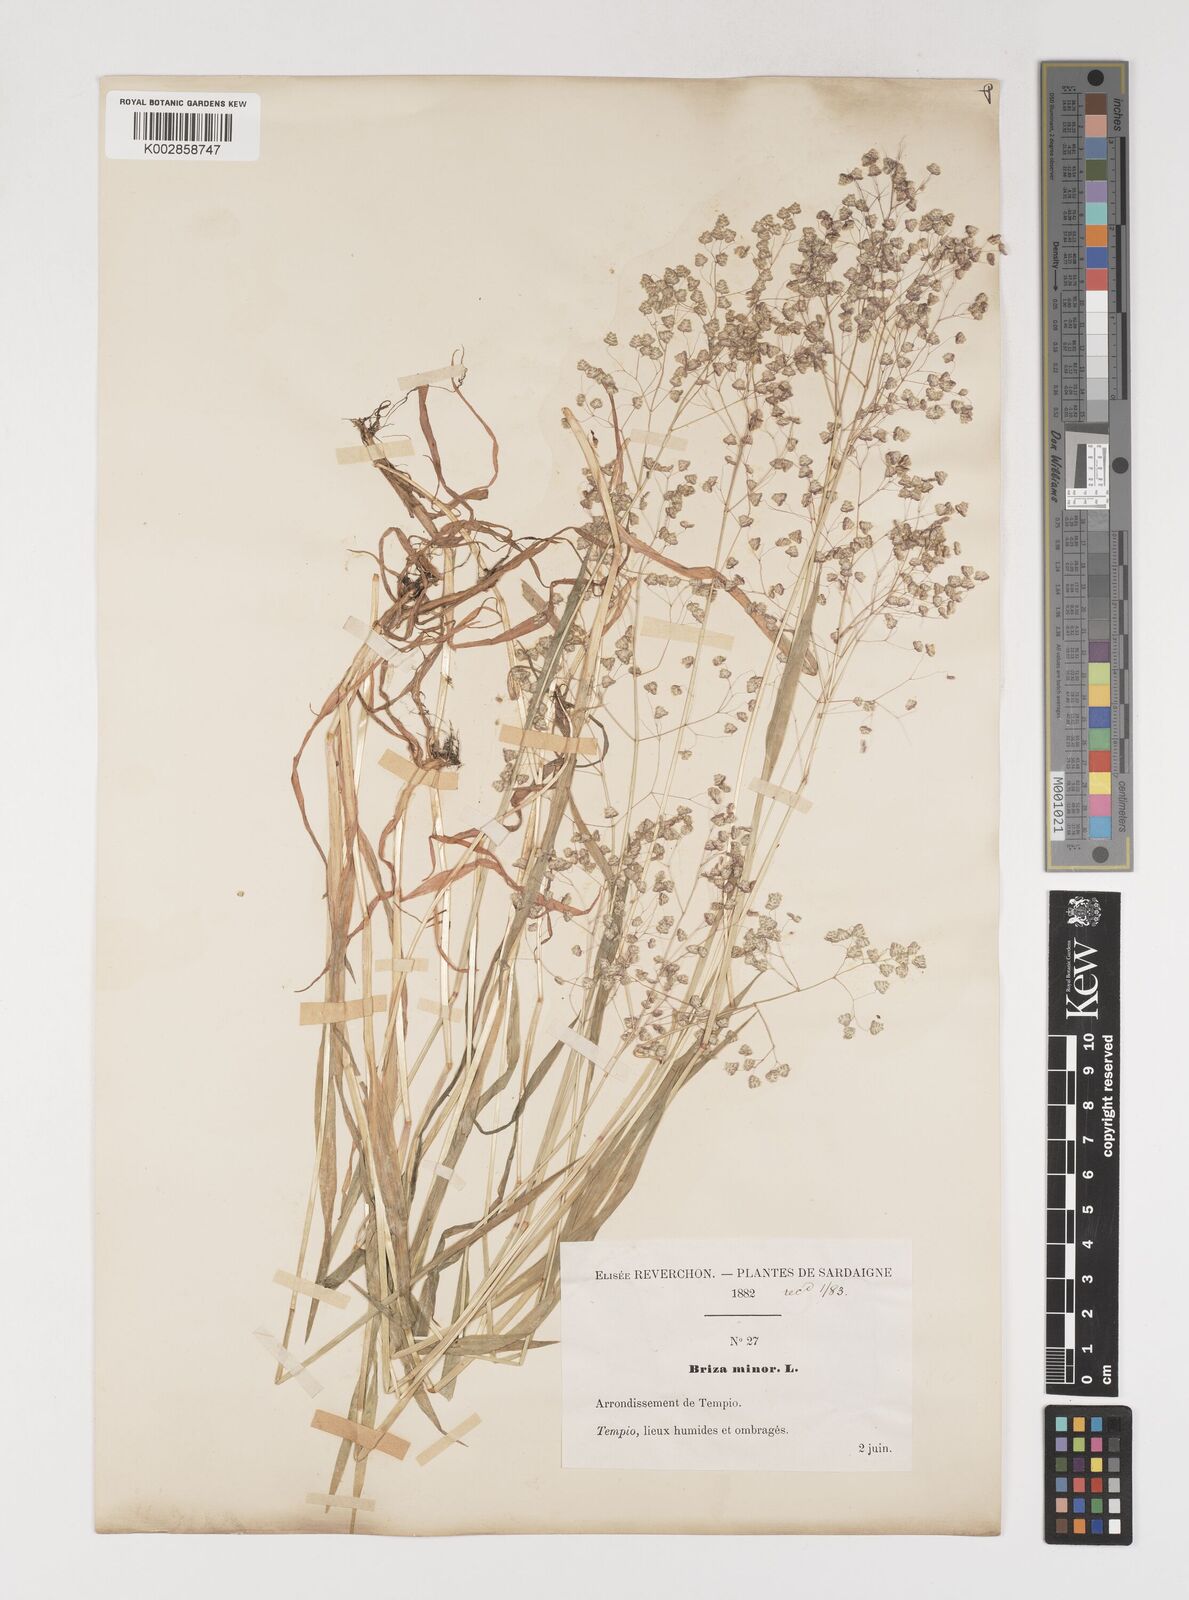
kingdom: Plantae
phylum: Tracheophyta
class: Liliopsida
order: Poales
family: Poaceae
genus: Briza
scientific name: Briza minor
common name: Lesser quaking-grass
